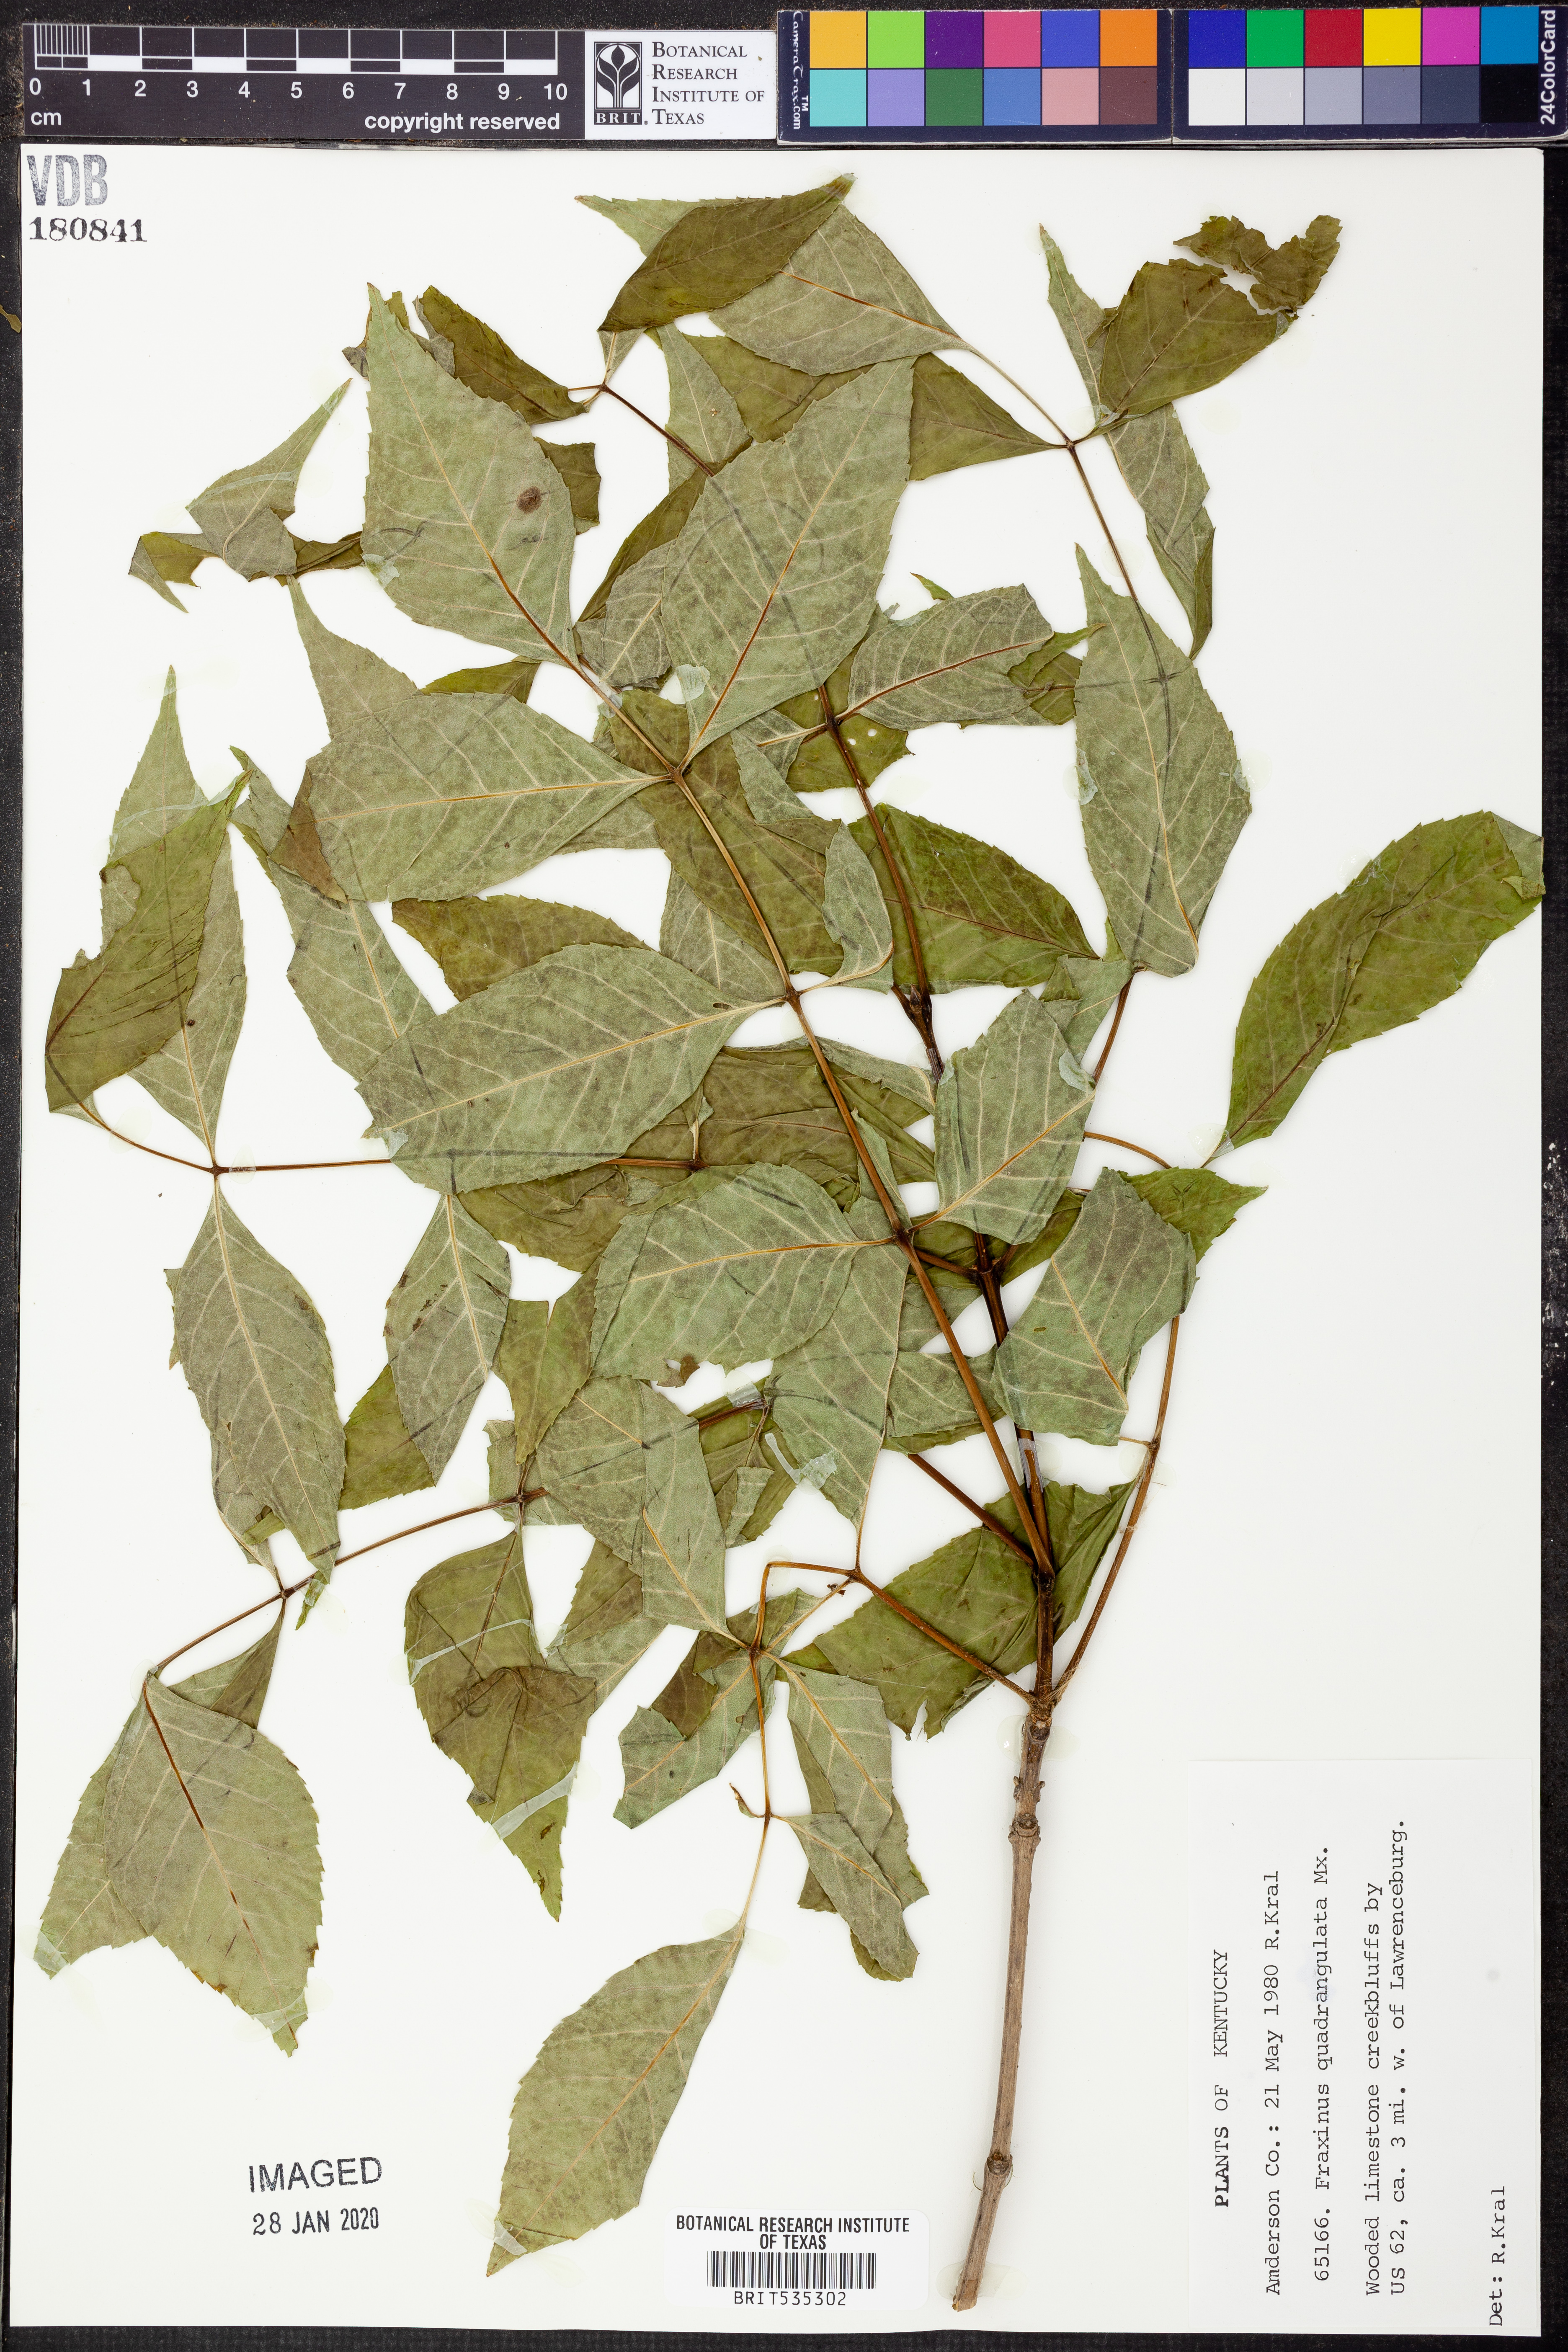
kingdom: Plantae
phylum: Tracheophyta
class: Magnoliopsida
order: Lamiales
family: Oleaceae
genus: Fraxinus
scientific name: Fraxinus quadrangulata
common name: Blue ash
